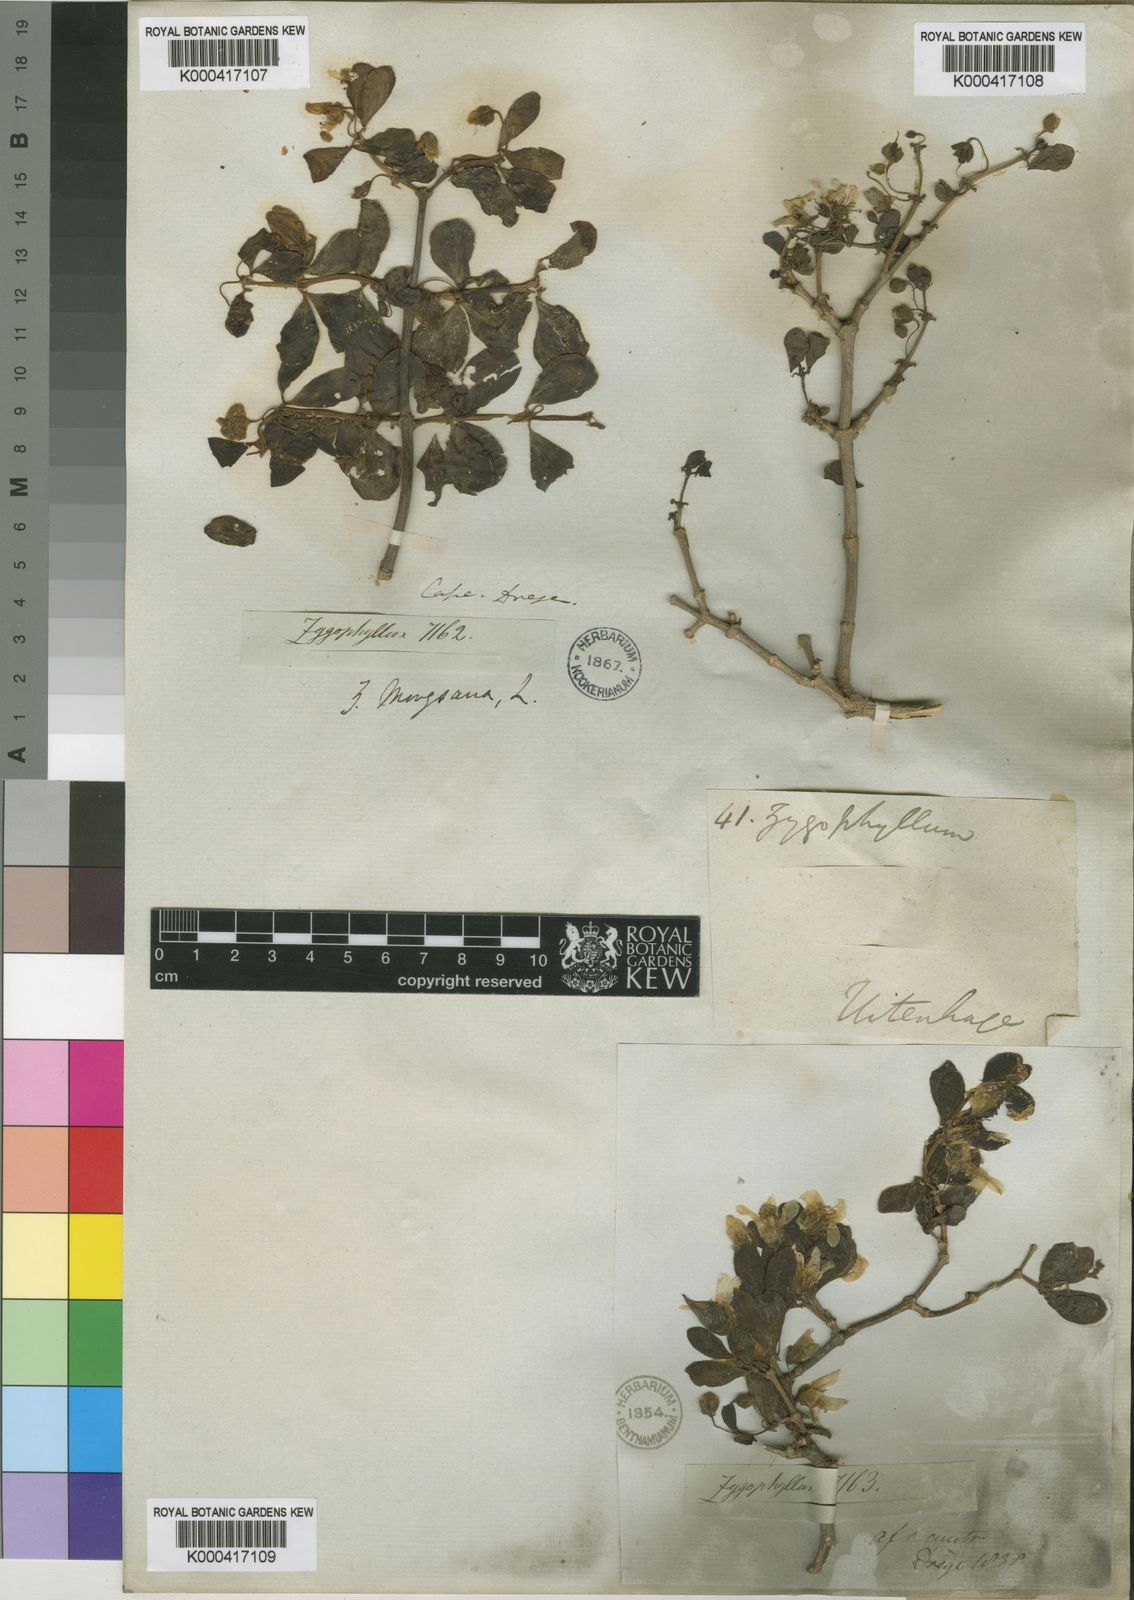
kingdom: Plantae
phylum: Tracheophyta
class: Magnoliopsida
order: Zygophyllales
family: Zygophyllaceae
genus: Roepera
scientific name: Roepera morgsana
